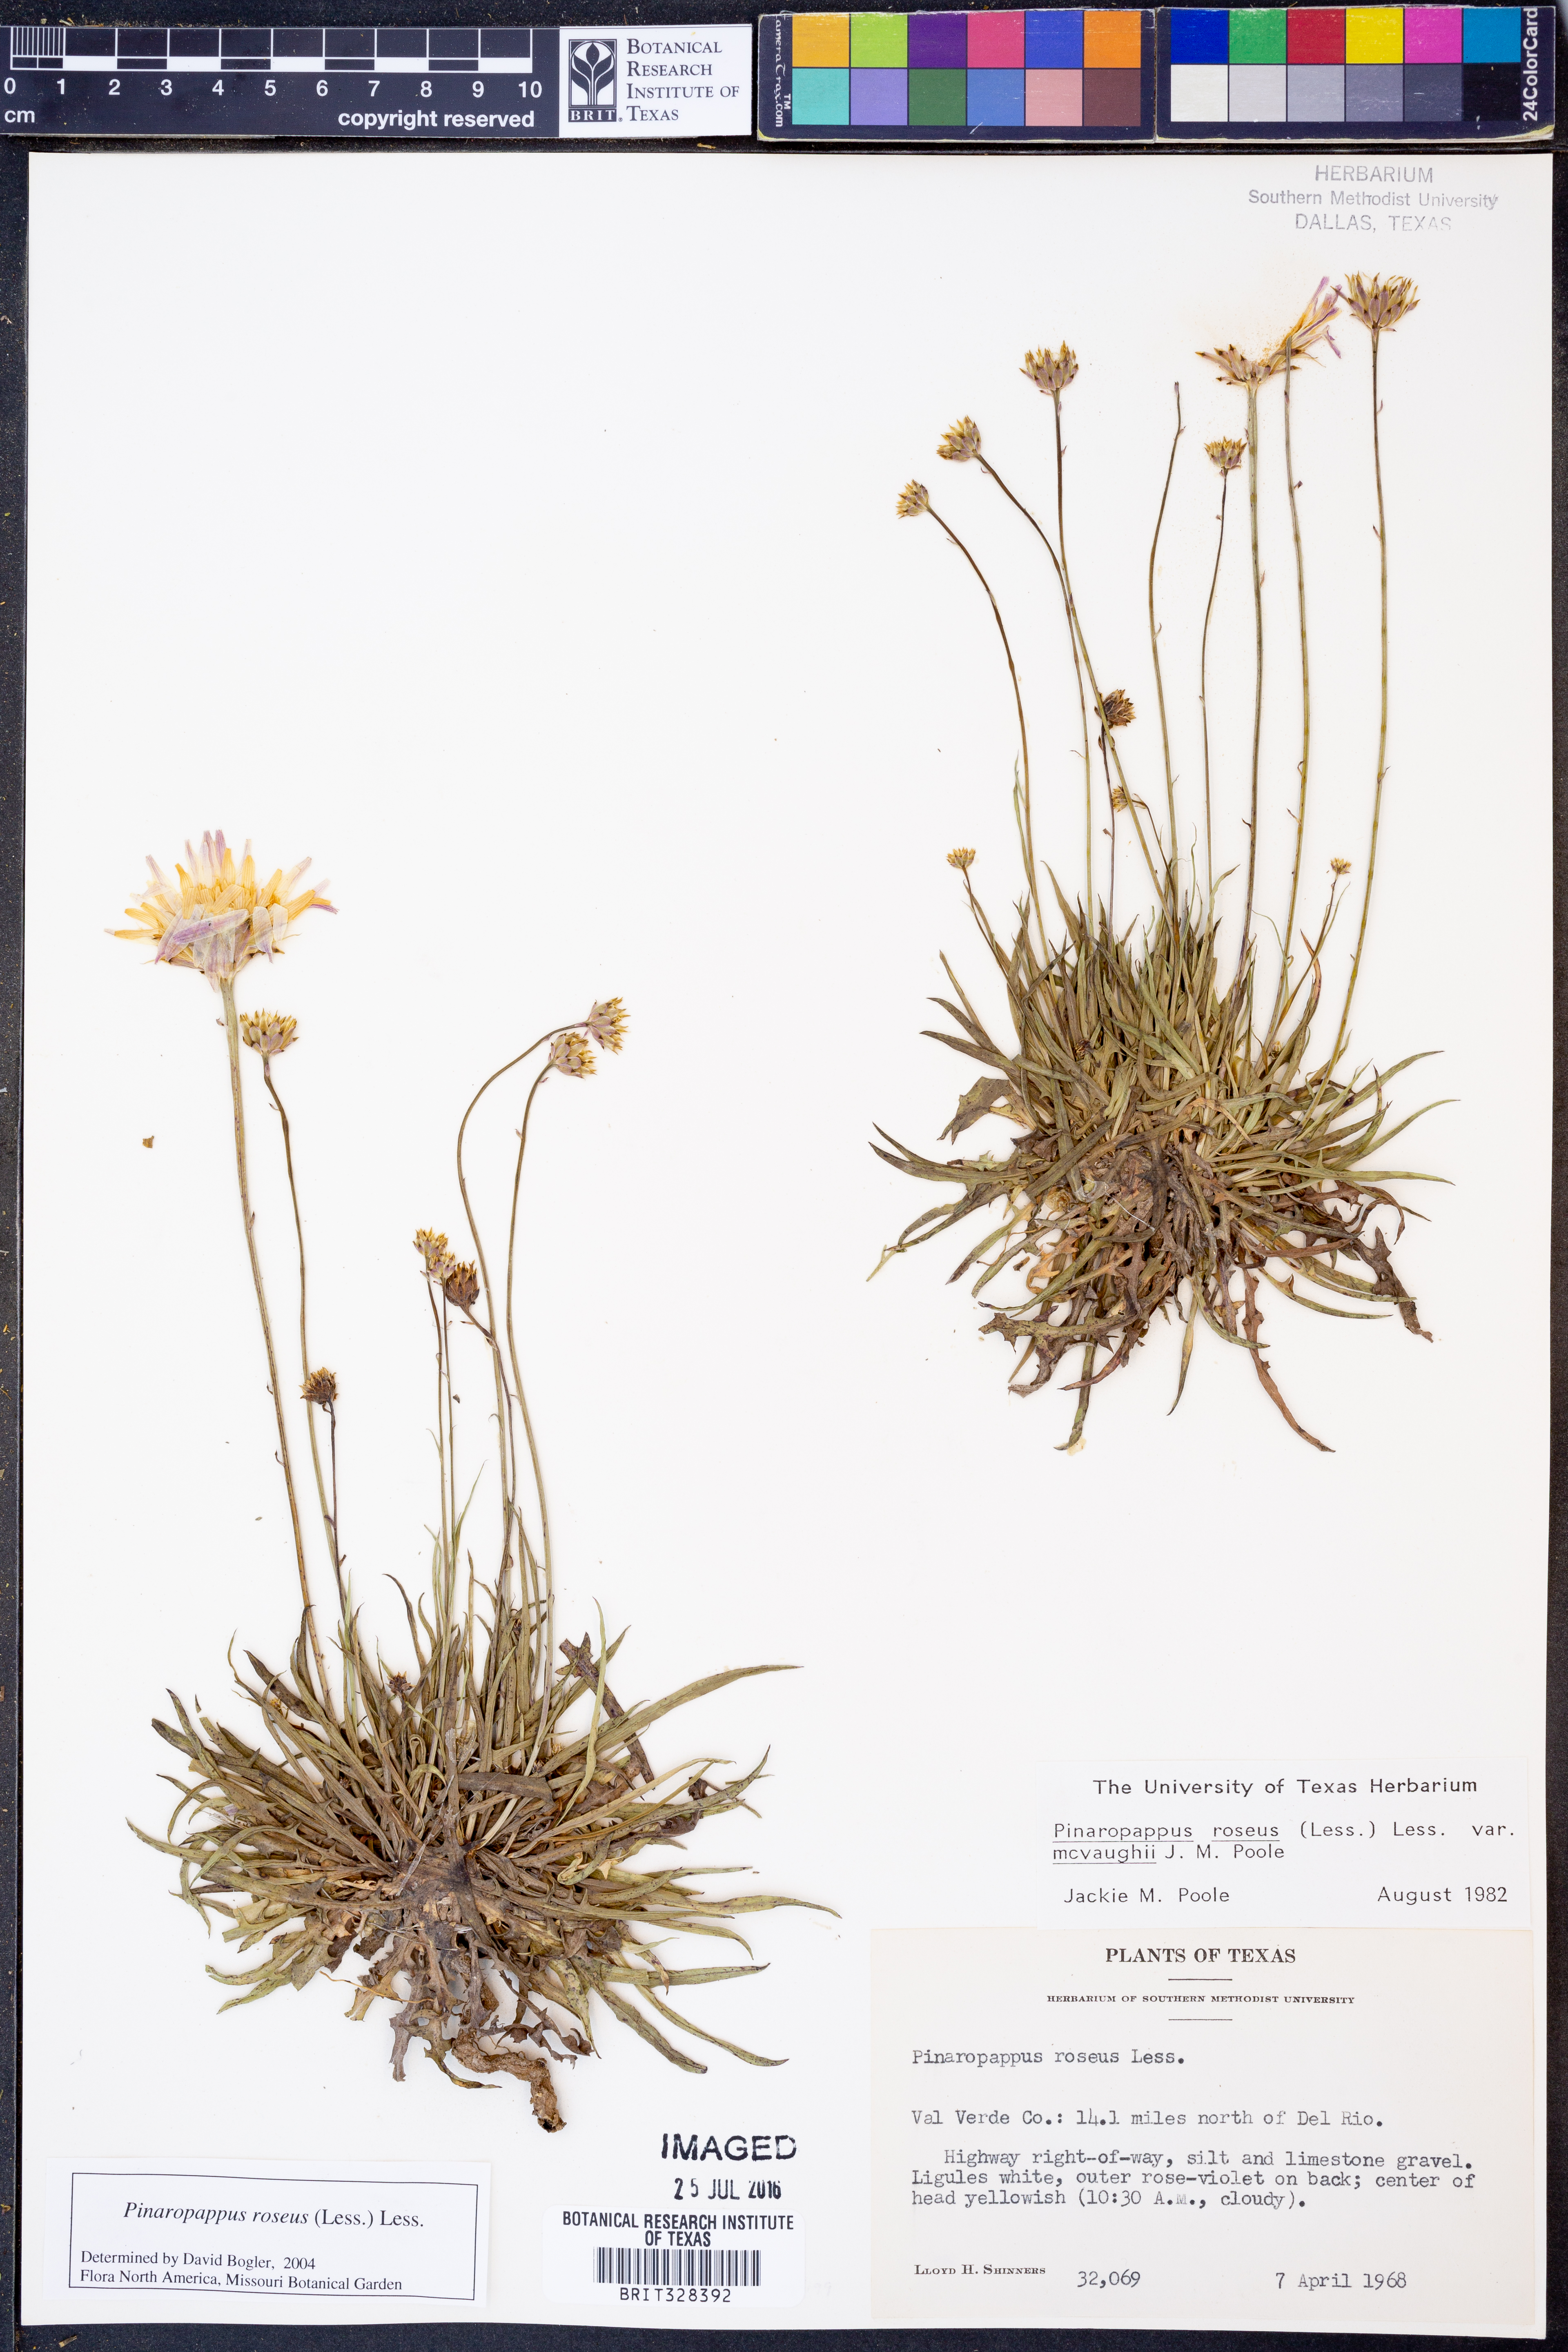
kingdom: Plantae
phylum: Tracheophyta
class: Magnoliopsida
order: Asterales
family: Asteraceae
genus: Pinaropappus
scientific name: Pinaropappus roseus
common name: Rock-lettuce
